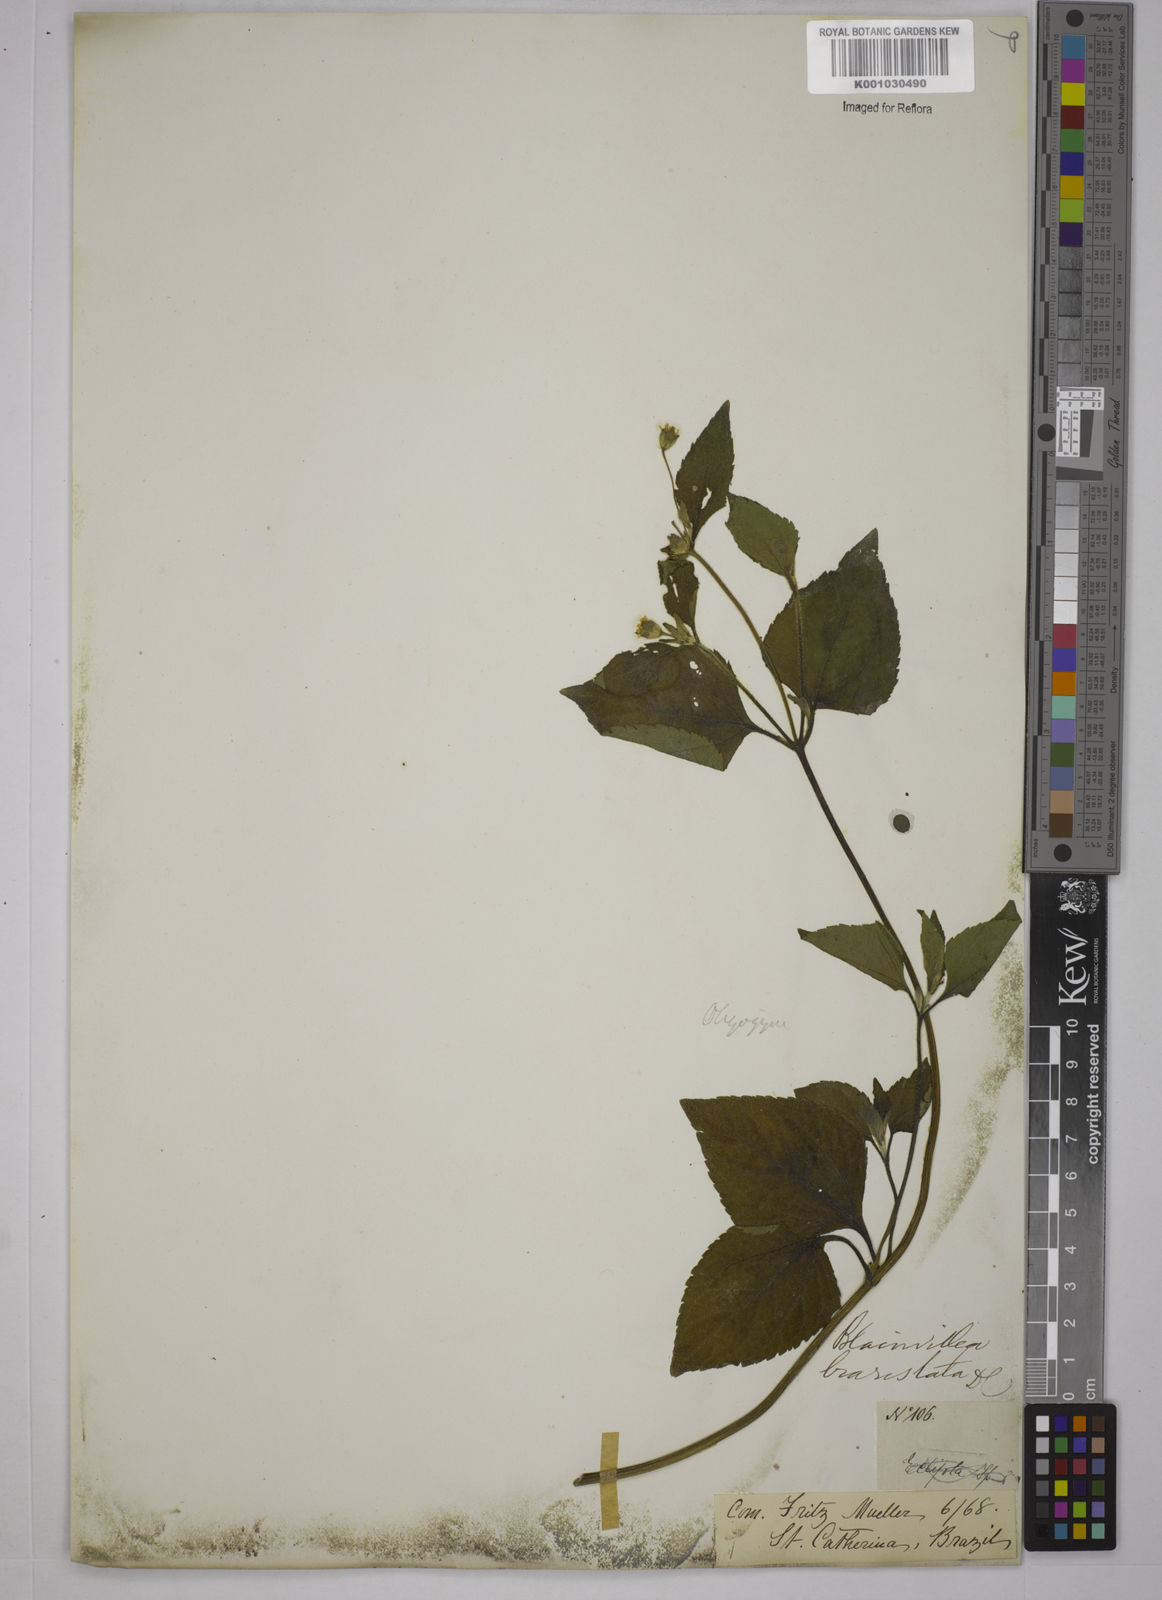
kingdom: Plantae
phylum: Tracheophyta
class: Magnoliopsida
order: Asterales
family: Asteraceae
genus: Blainvillea
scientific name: Blainvillea
